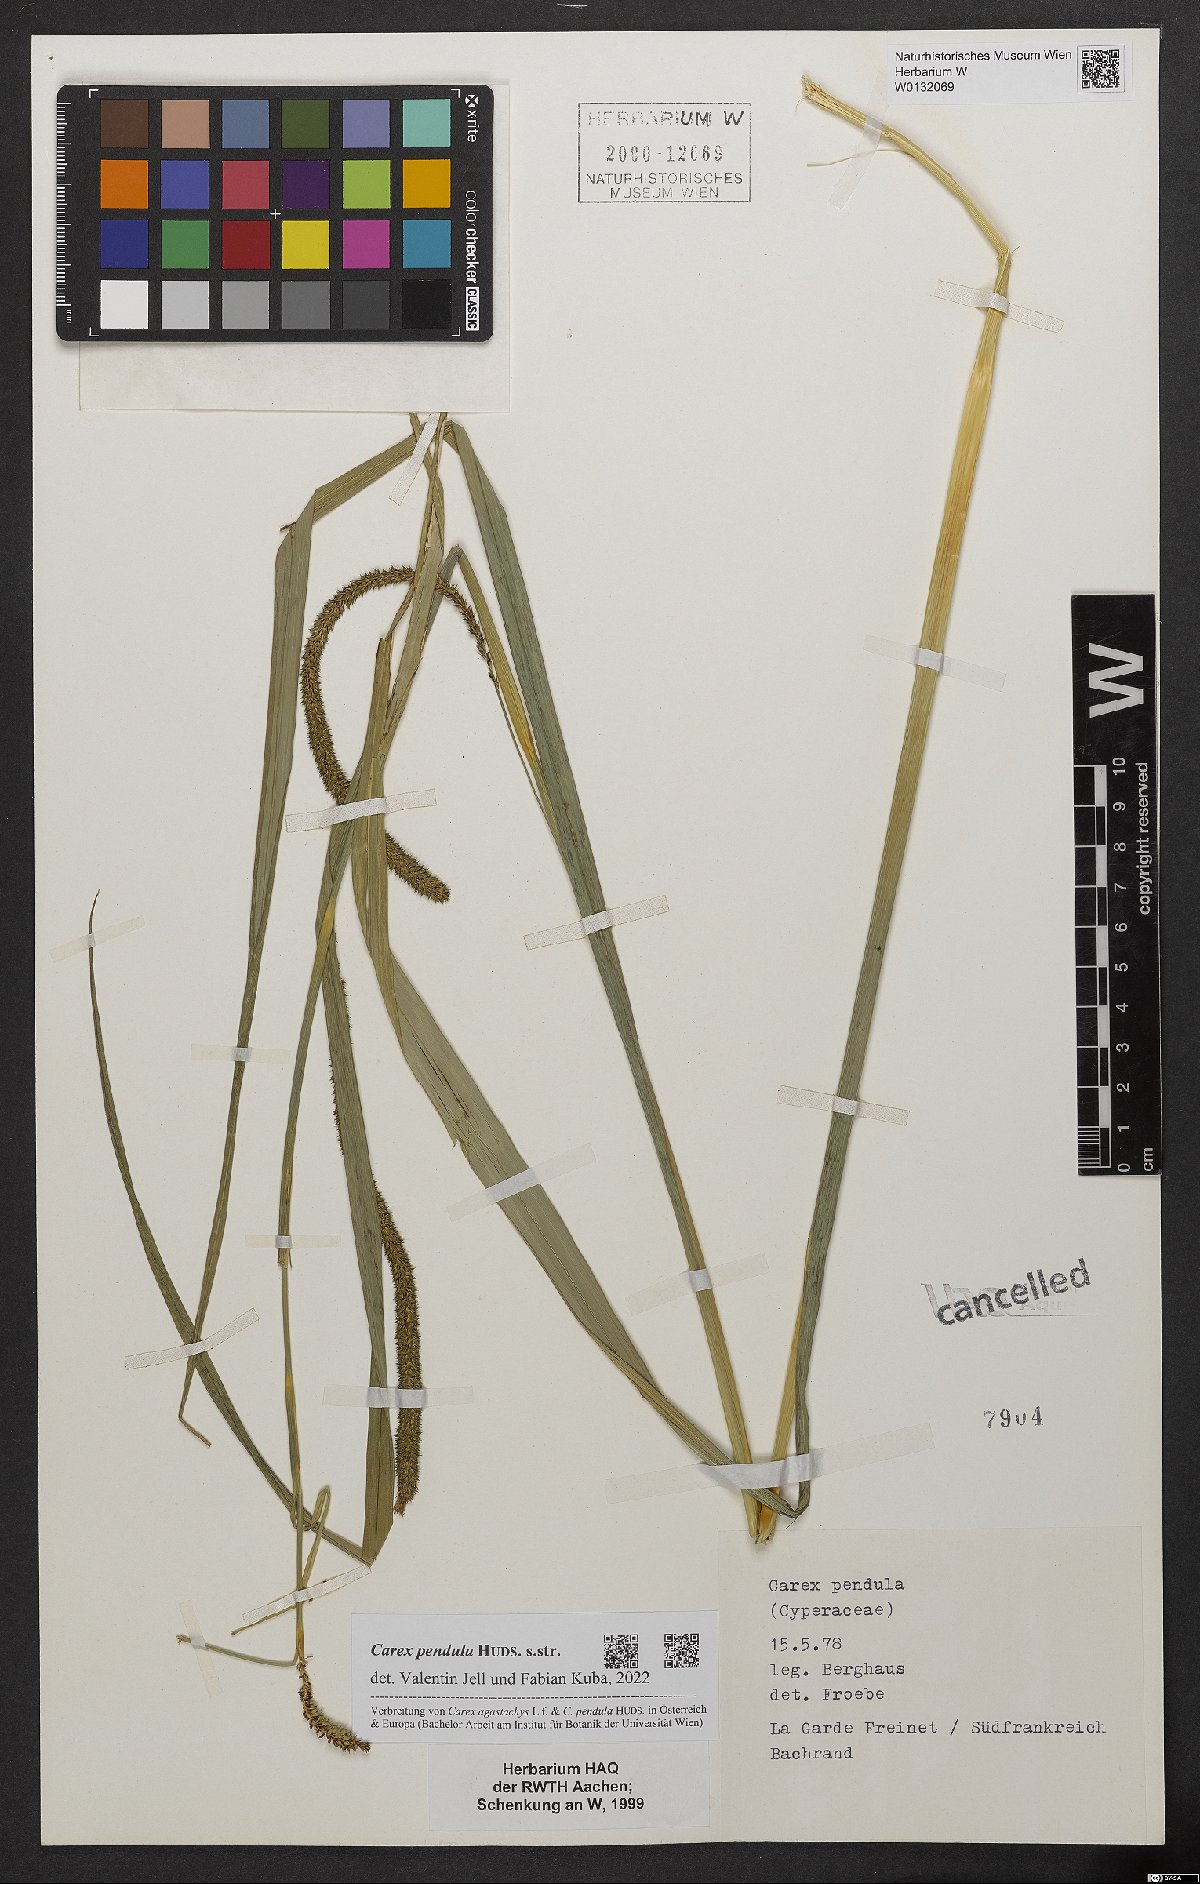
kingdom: Plantae
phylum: Tracheophyta
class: Liliopsida
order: Poales
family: Cyperaceae
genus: Carex
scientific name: Carex pendula
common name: Pendulous sedge
